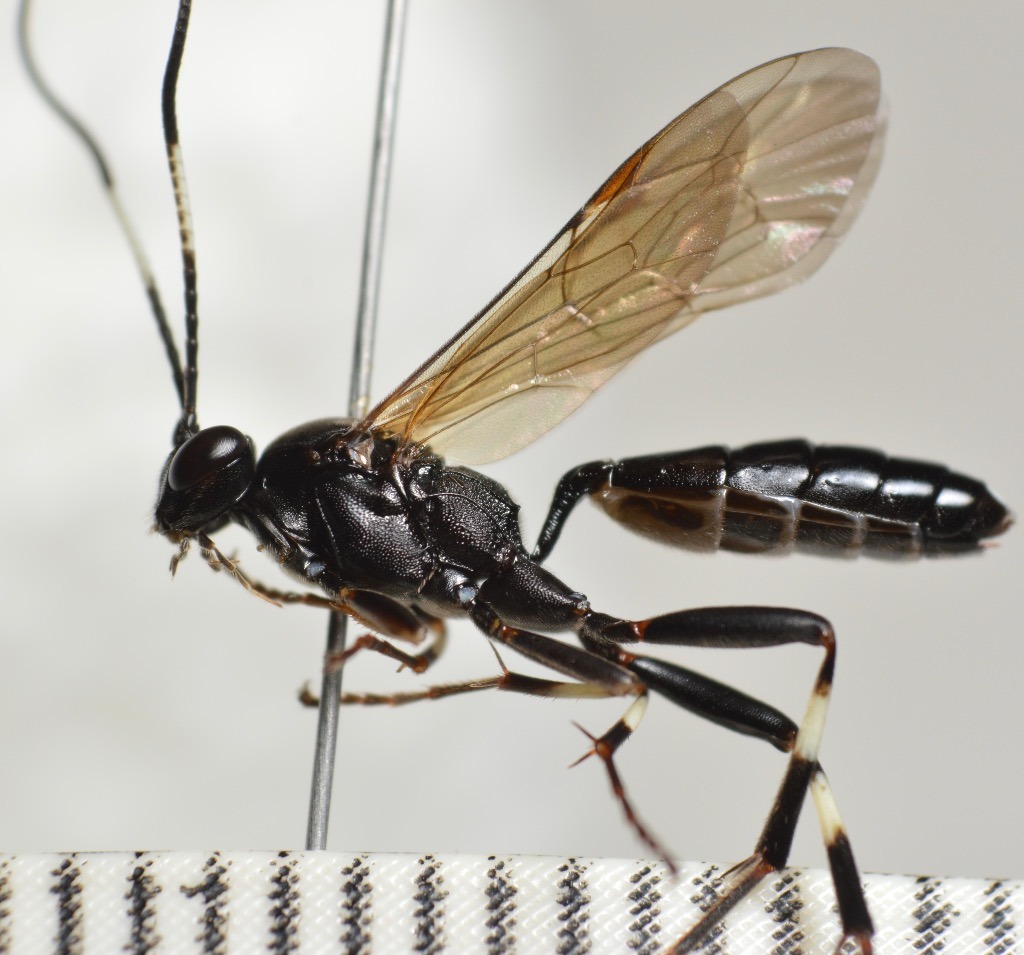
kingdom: Animalia
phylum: Arthropoda
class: Insecta
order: Hymenoptera
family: Ichneumonidae
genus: Achaius
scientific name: Achaius oratorius
